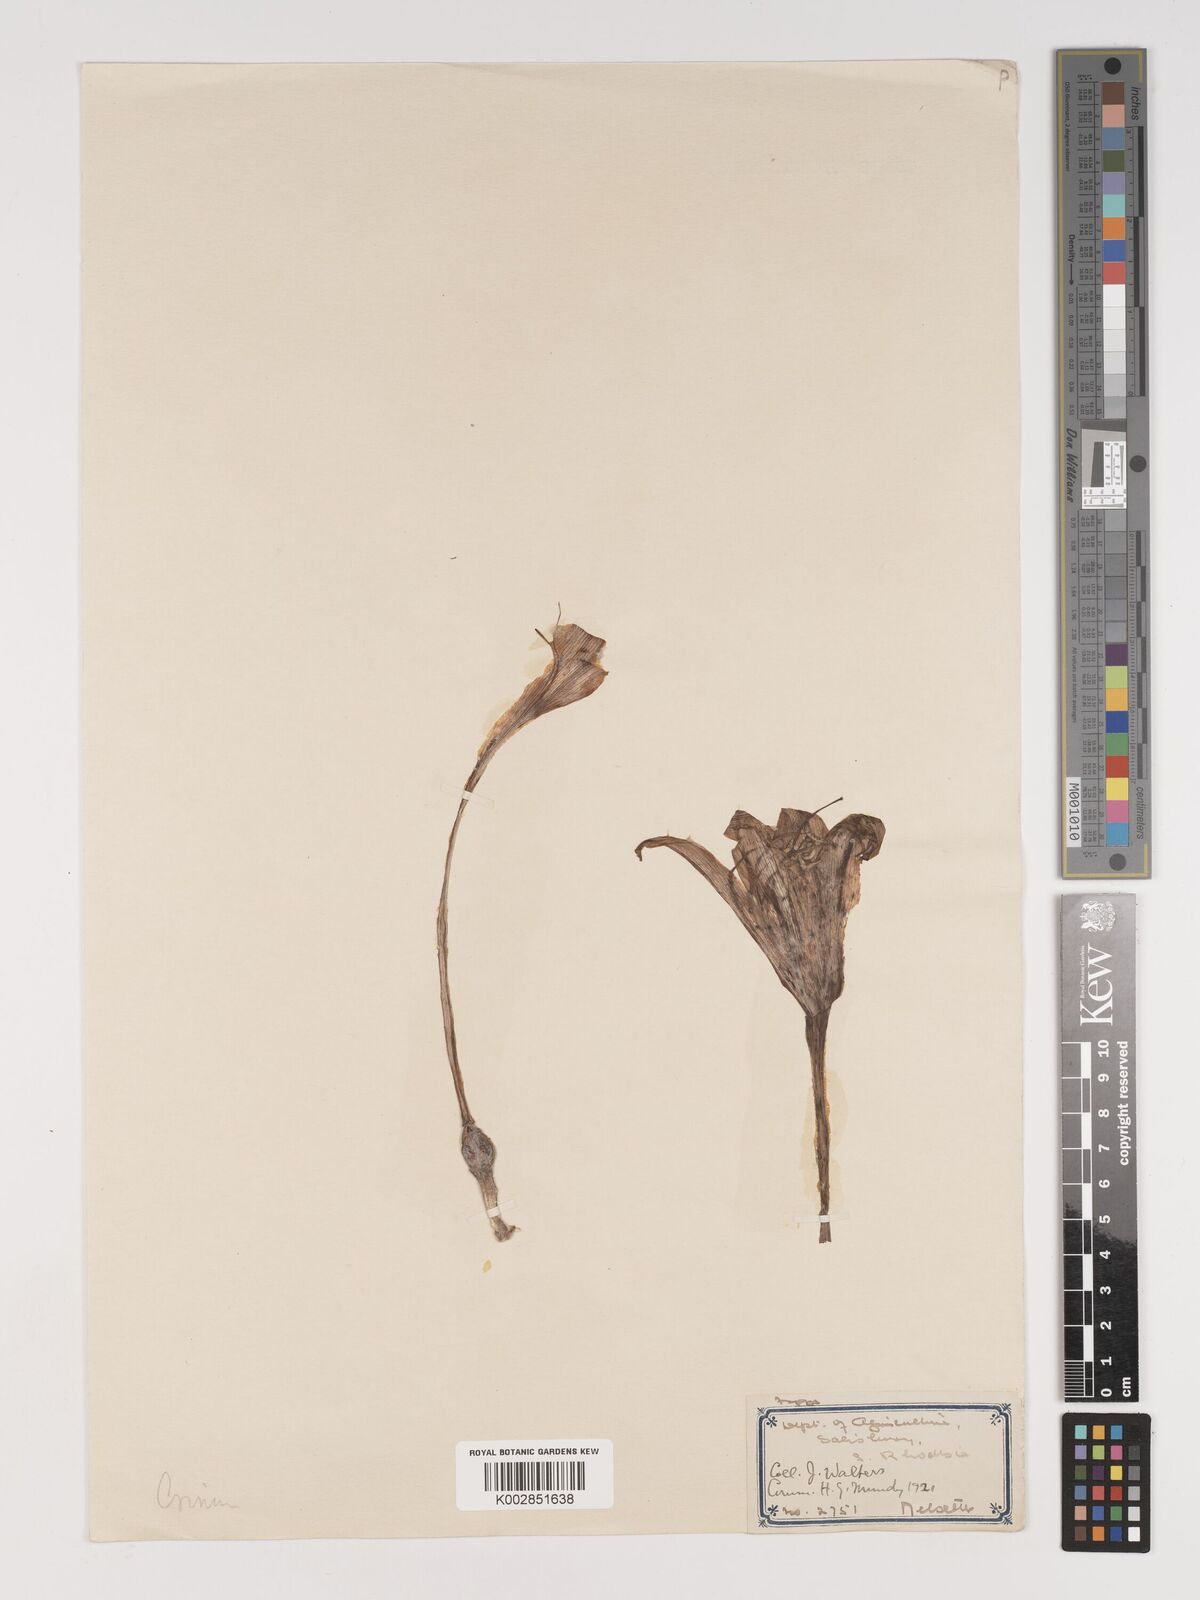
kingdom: Plantae
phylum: Tracheophyta
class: Liliopsida
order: Asparagales
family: Amaryllidaceae
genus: Crinum
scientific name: Crinum macowanii
